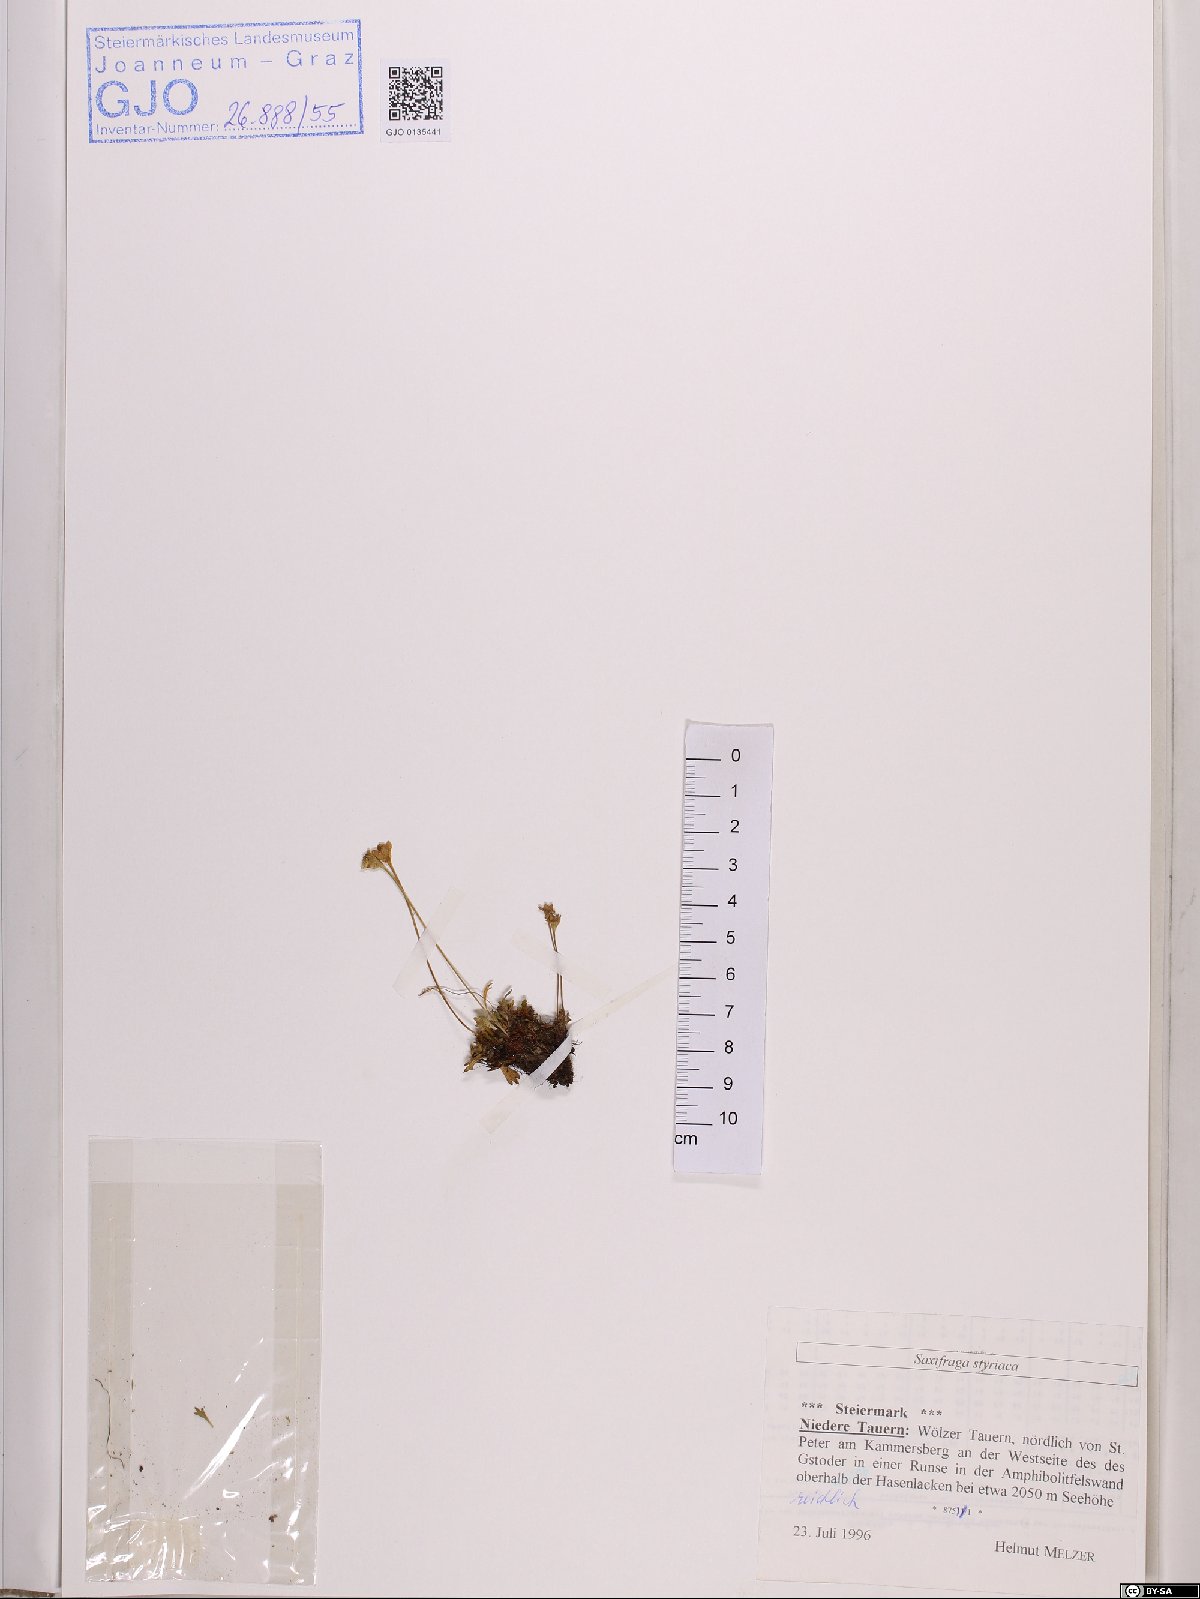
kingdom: Plantae
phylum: Tracheophyta
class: Magnoliopsida
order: Saxifragales
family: Saxifragaceae
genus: Saxifraga
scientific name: Saxifraga styriaca
